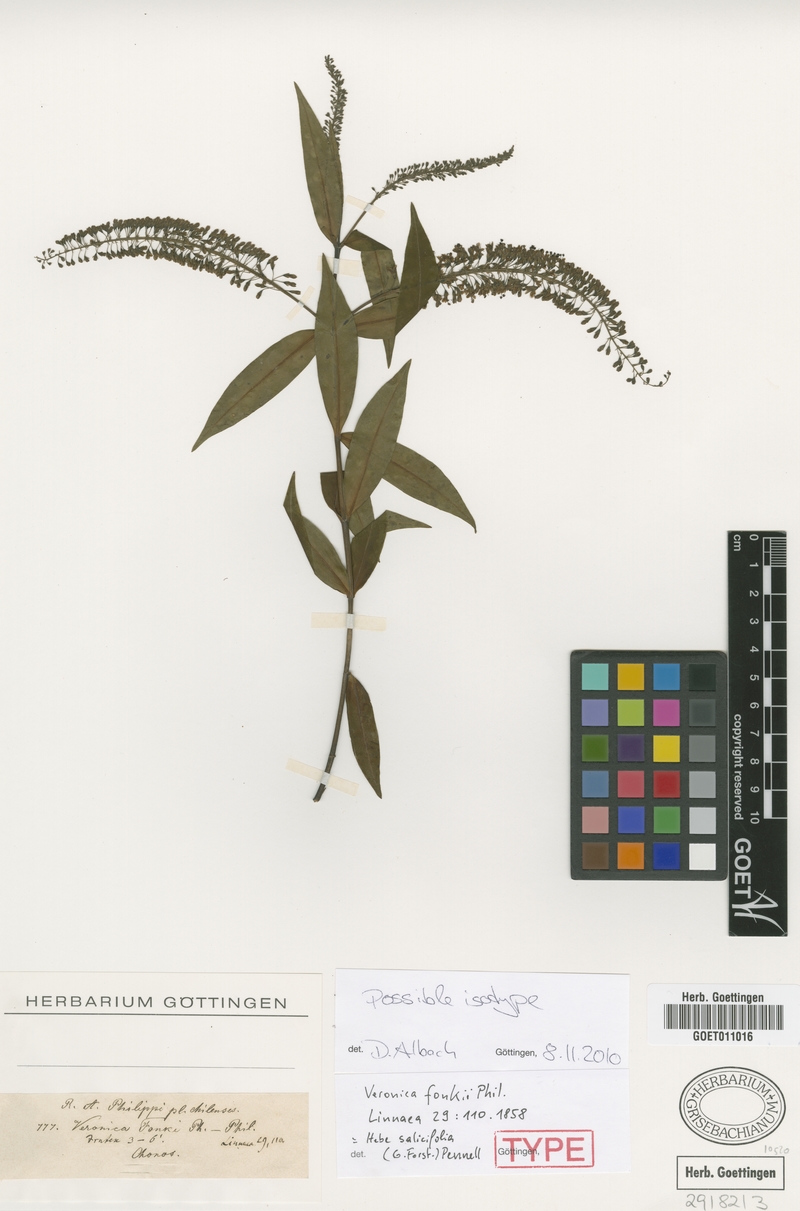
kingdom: Plantae
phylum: Tracheophyta
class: Magnoliopsida
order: Lamiales
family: Plantaginaceae
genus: Veronica
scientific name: Veronica salicifolia
